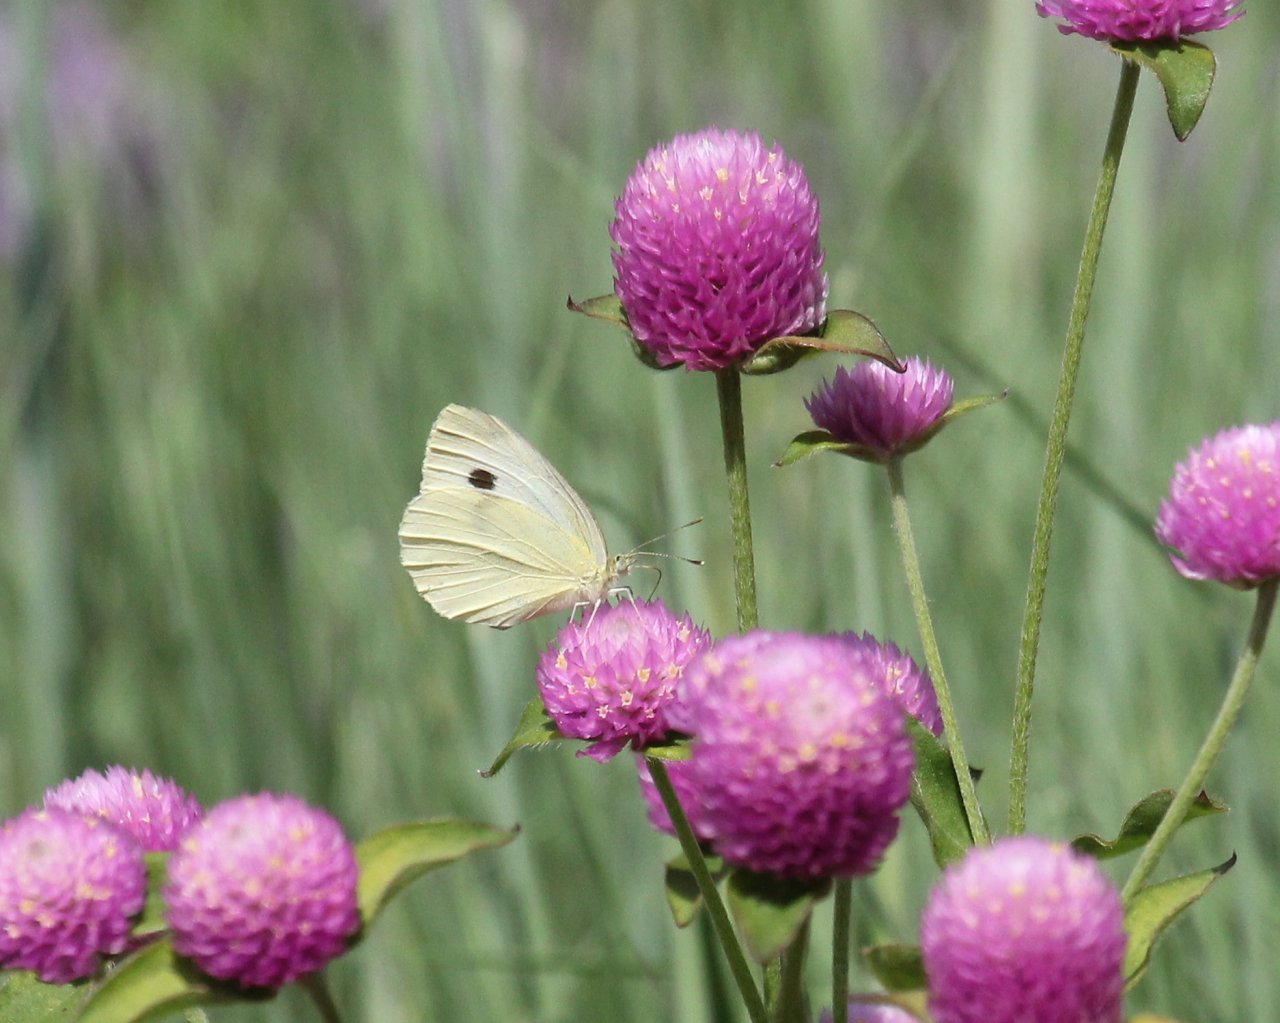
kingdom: Animalia
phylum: Arthropoda
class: Insecta
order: Lepidoptera
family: Pieridae
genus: Pieris
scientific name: Pieris rapae
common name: Cabbage White
